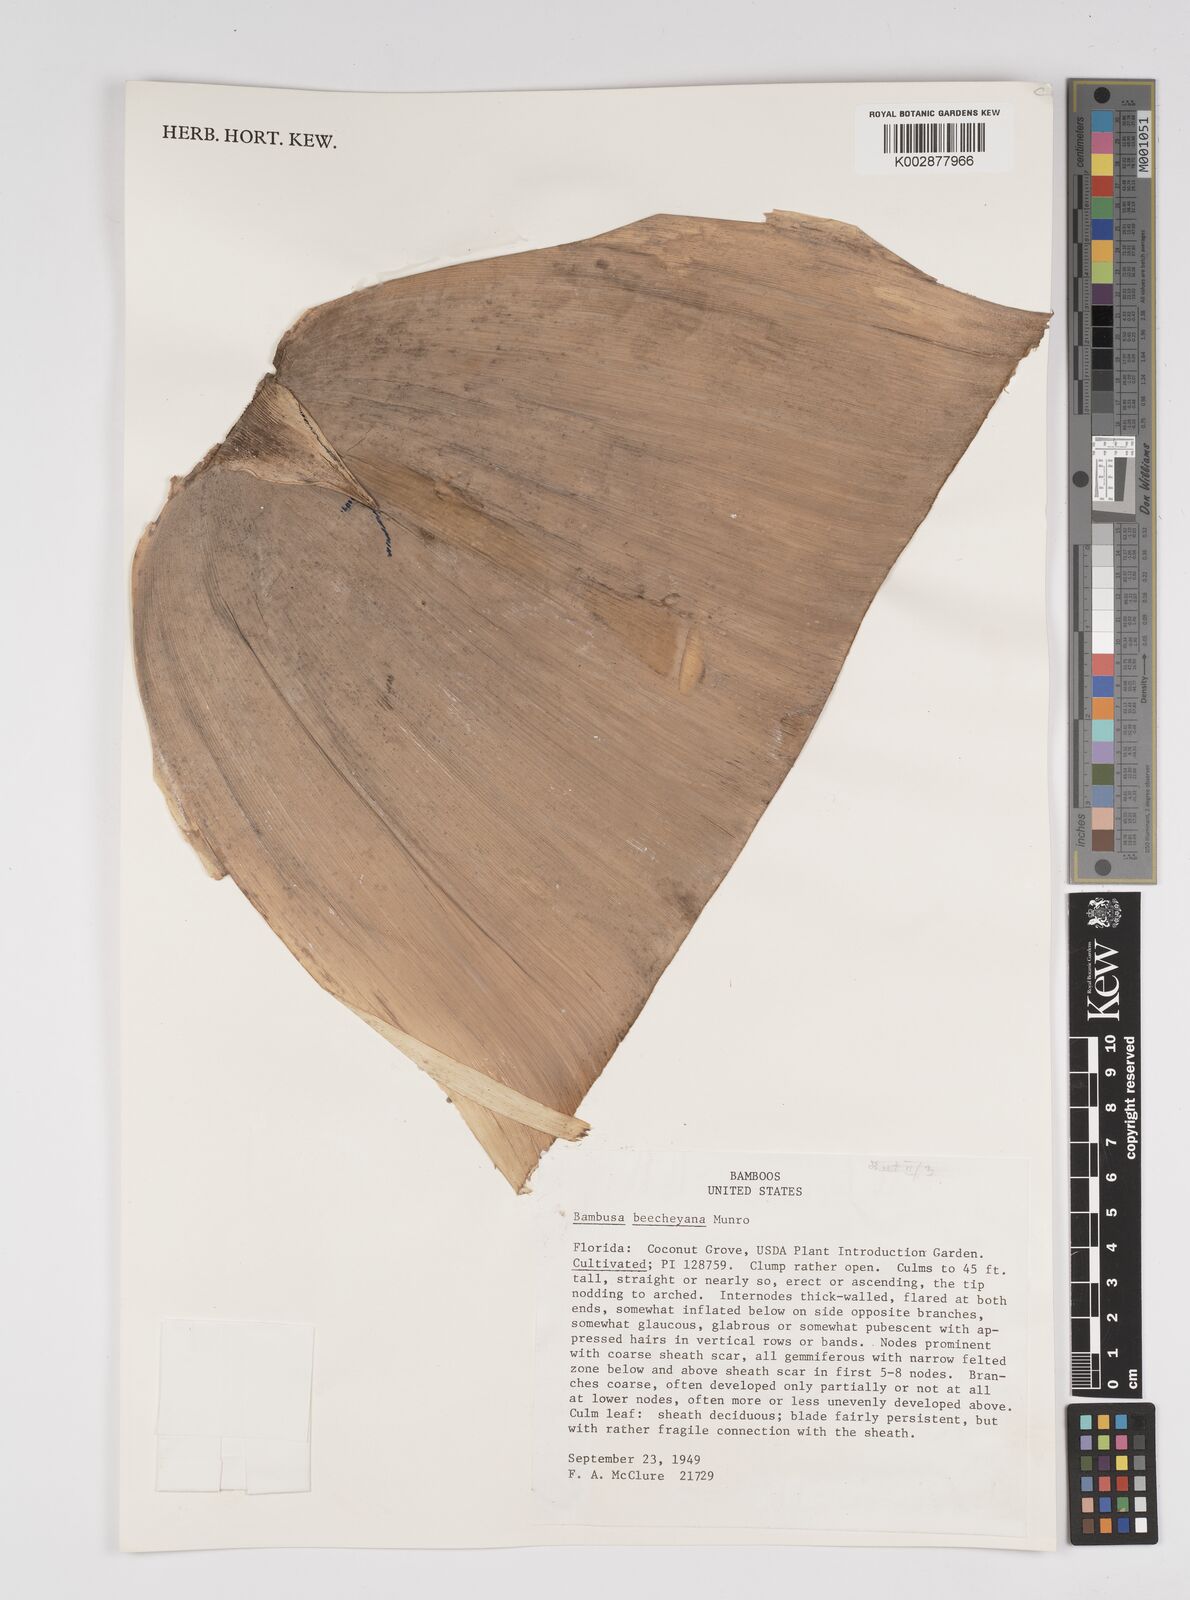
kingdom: Plantae
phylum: Tracheophyta
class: Liliopsida
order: Poales
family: Poaceae
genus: Bambusa
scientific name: Bambusa beecheyana
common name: Beechey's bamboo
